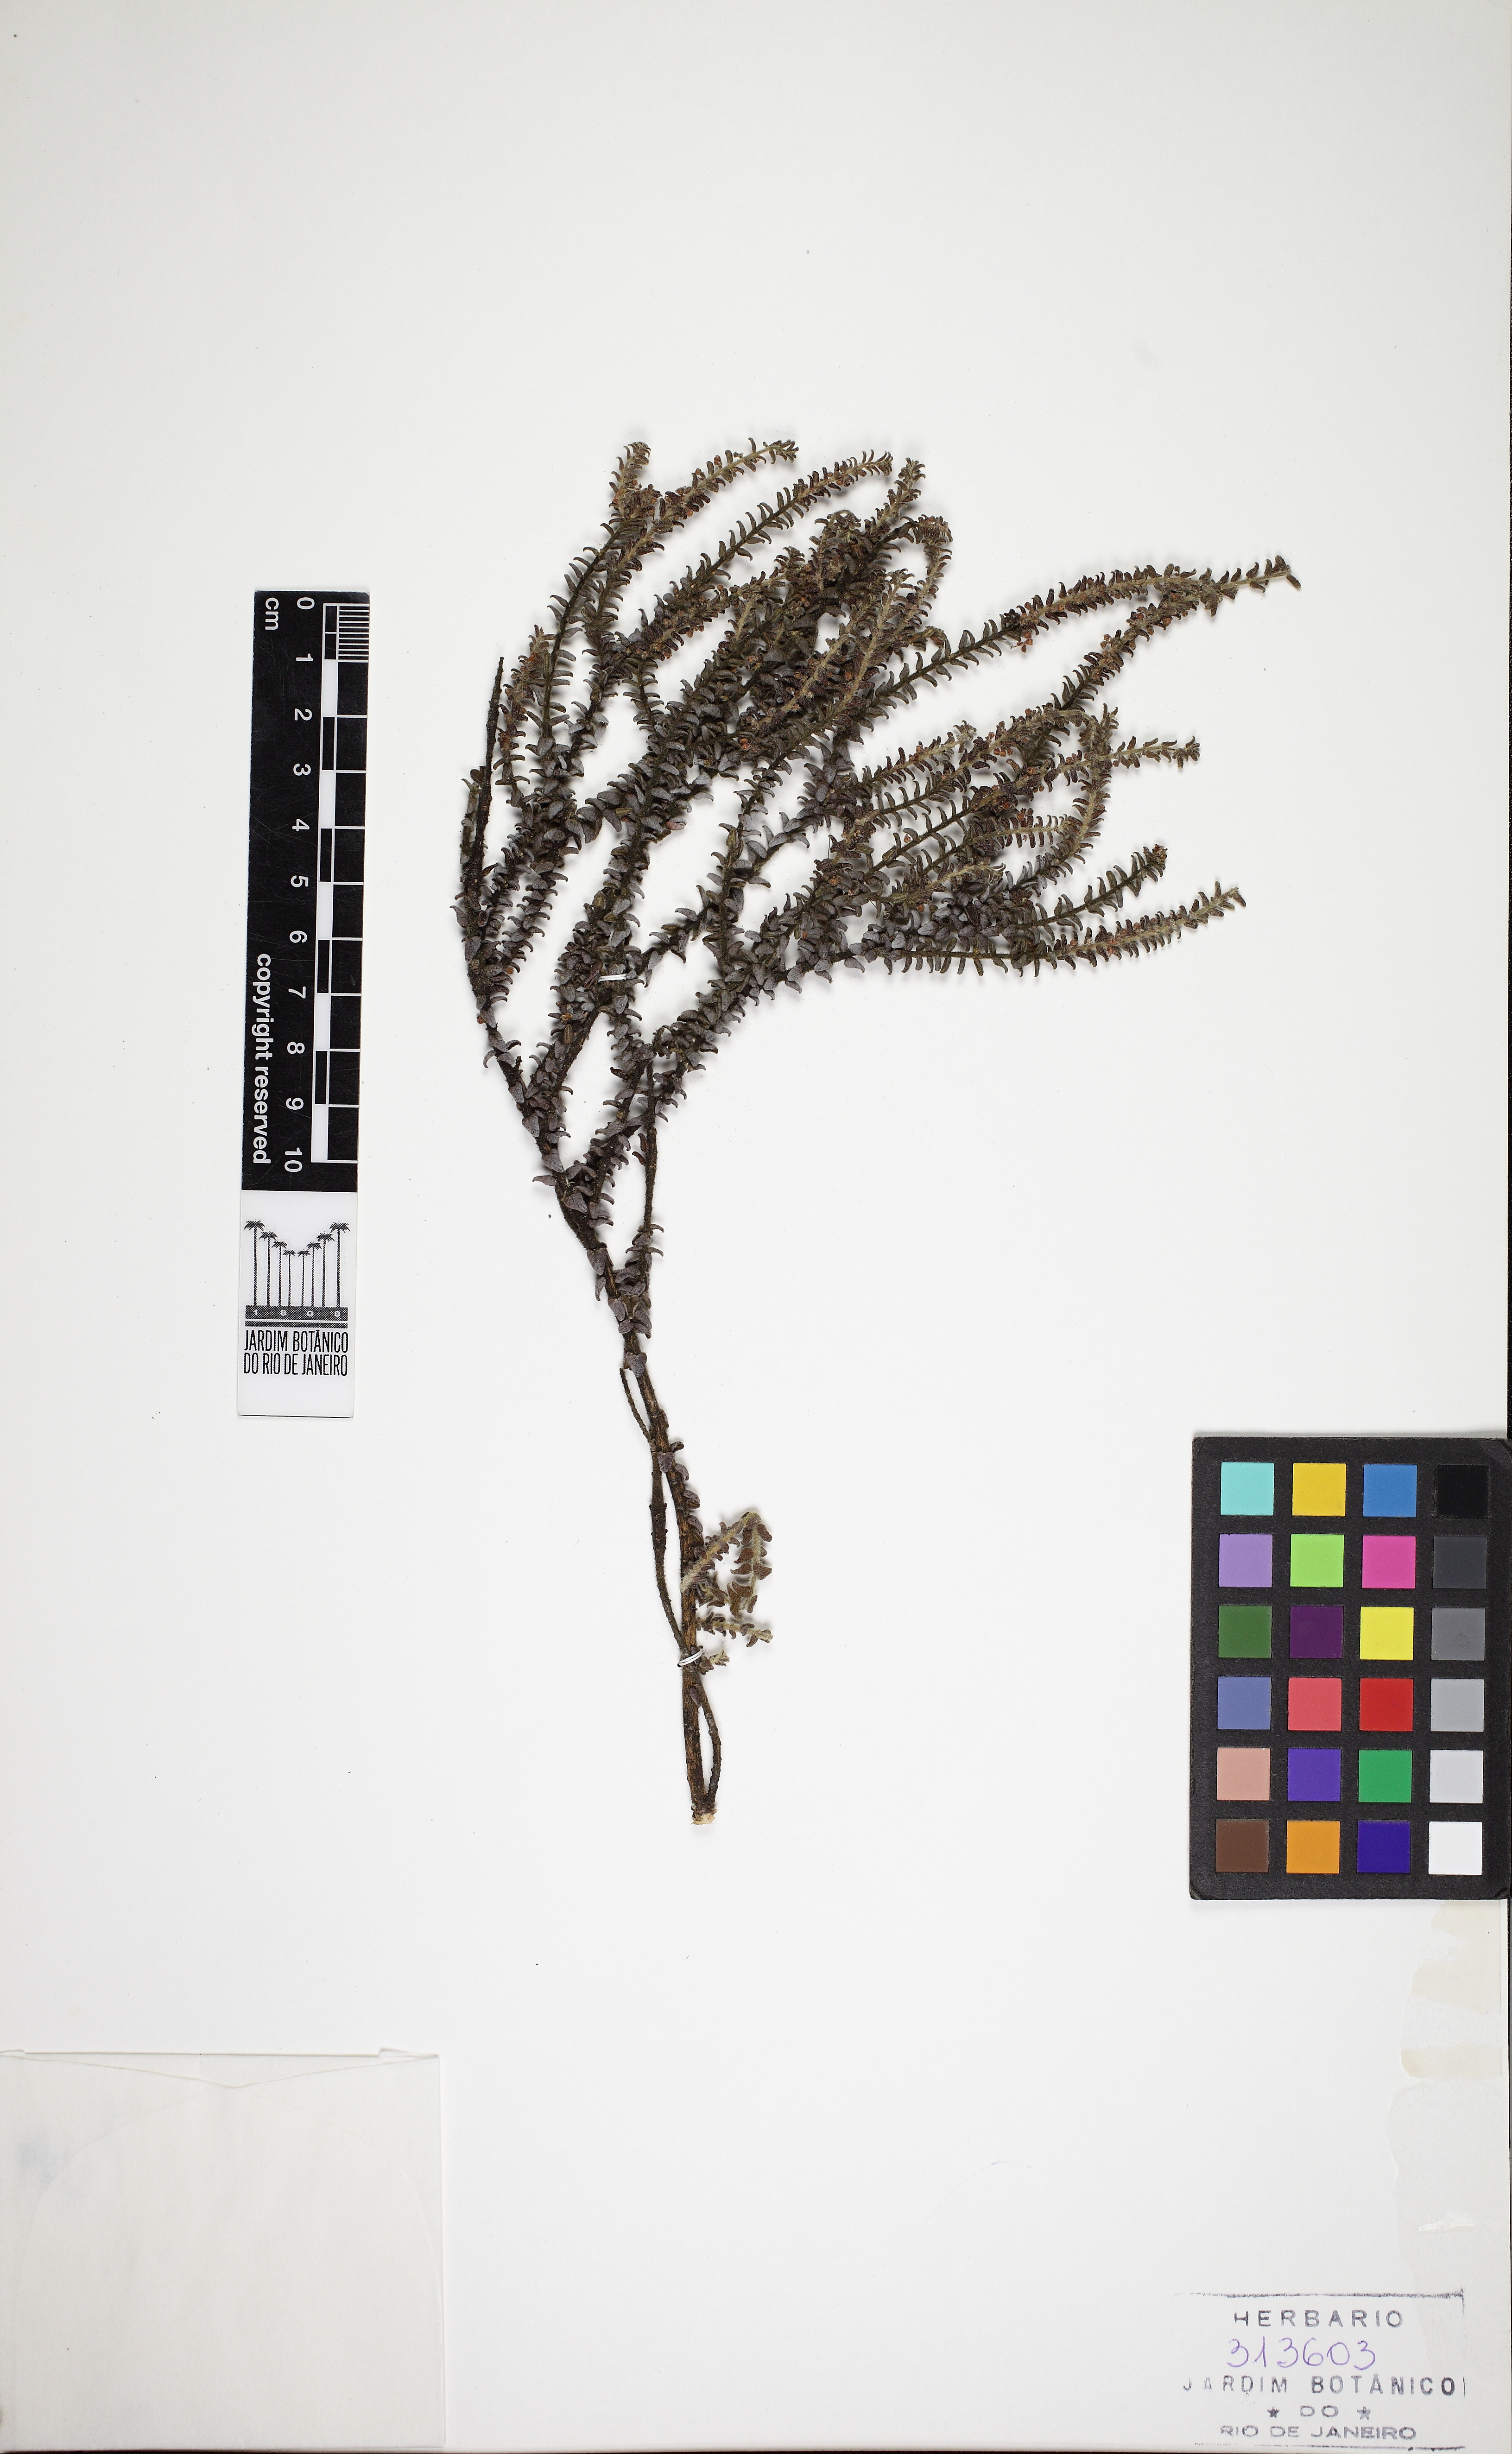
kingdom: Plantae
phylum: Tracheophyta
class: Magnoliopsida
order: Gentianales
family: Apocynaceae
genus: Minaria
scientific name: Minaria decussata
